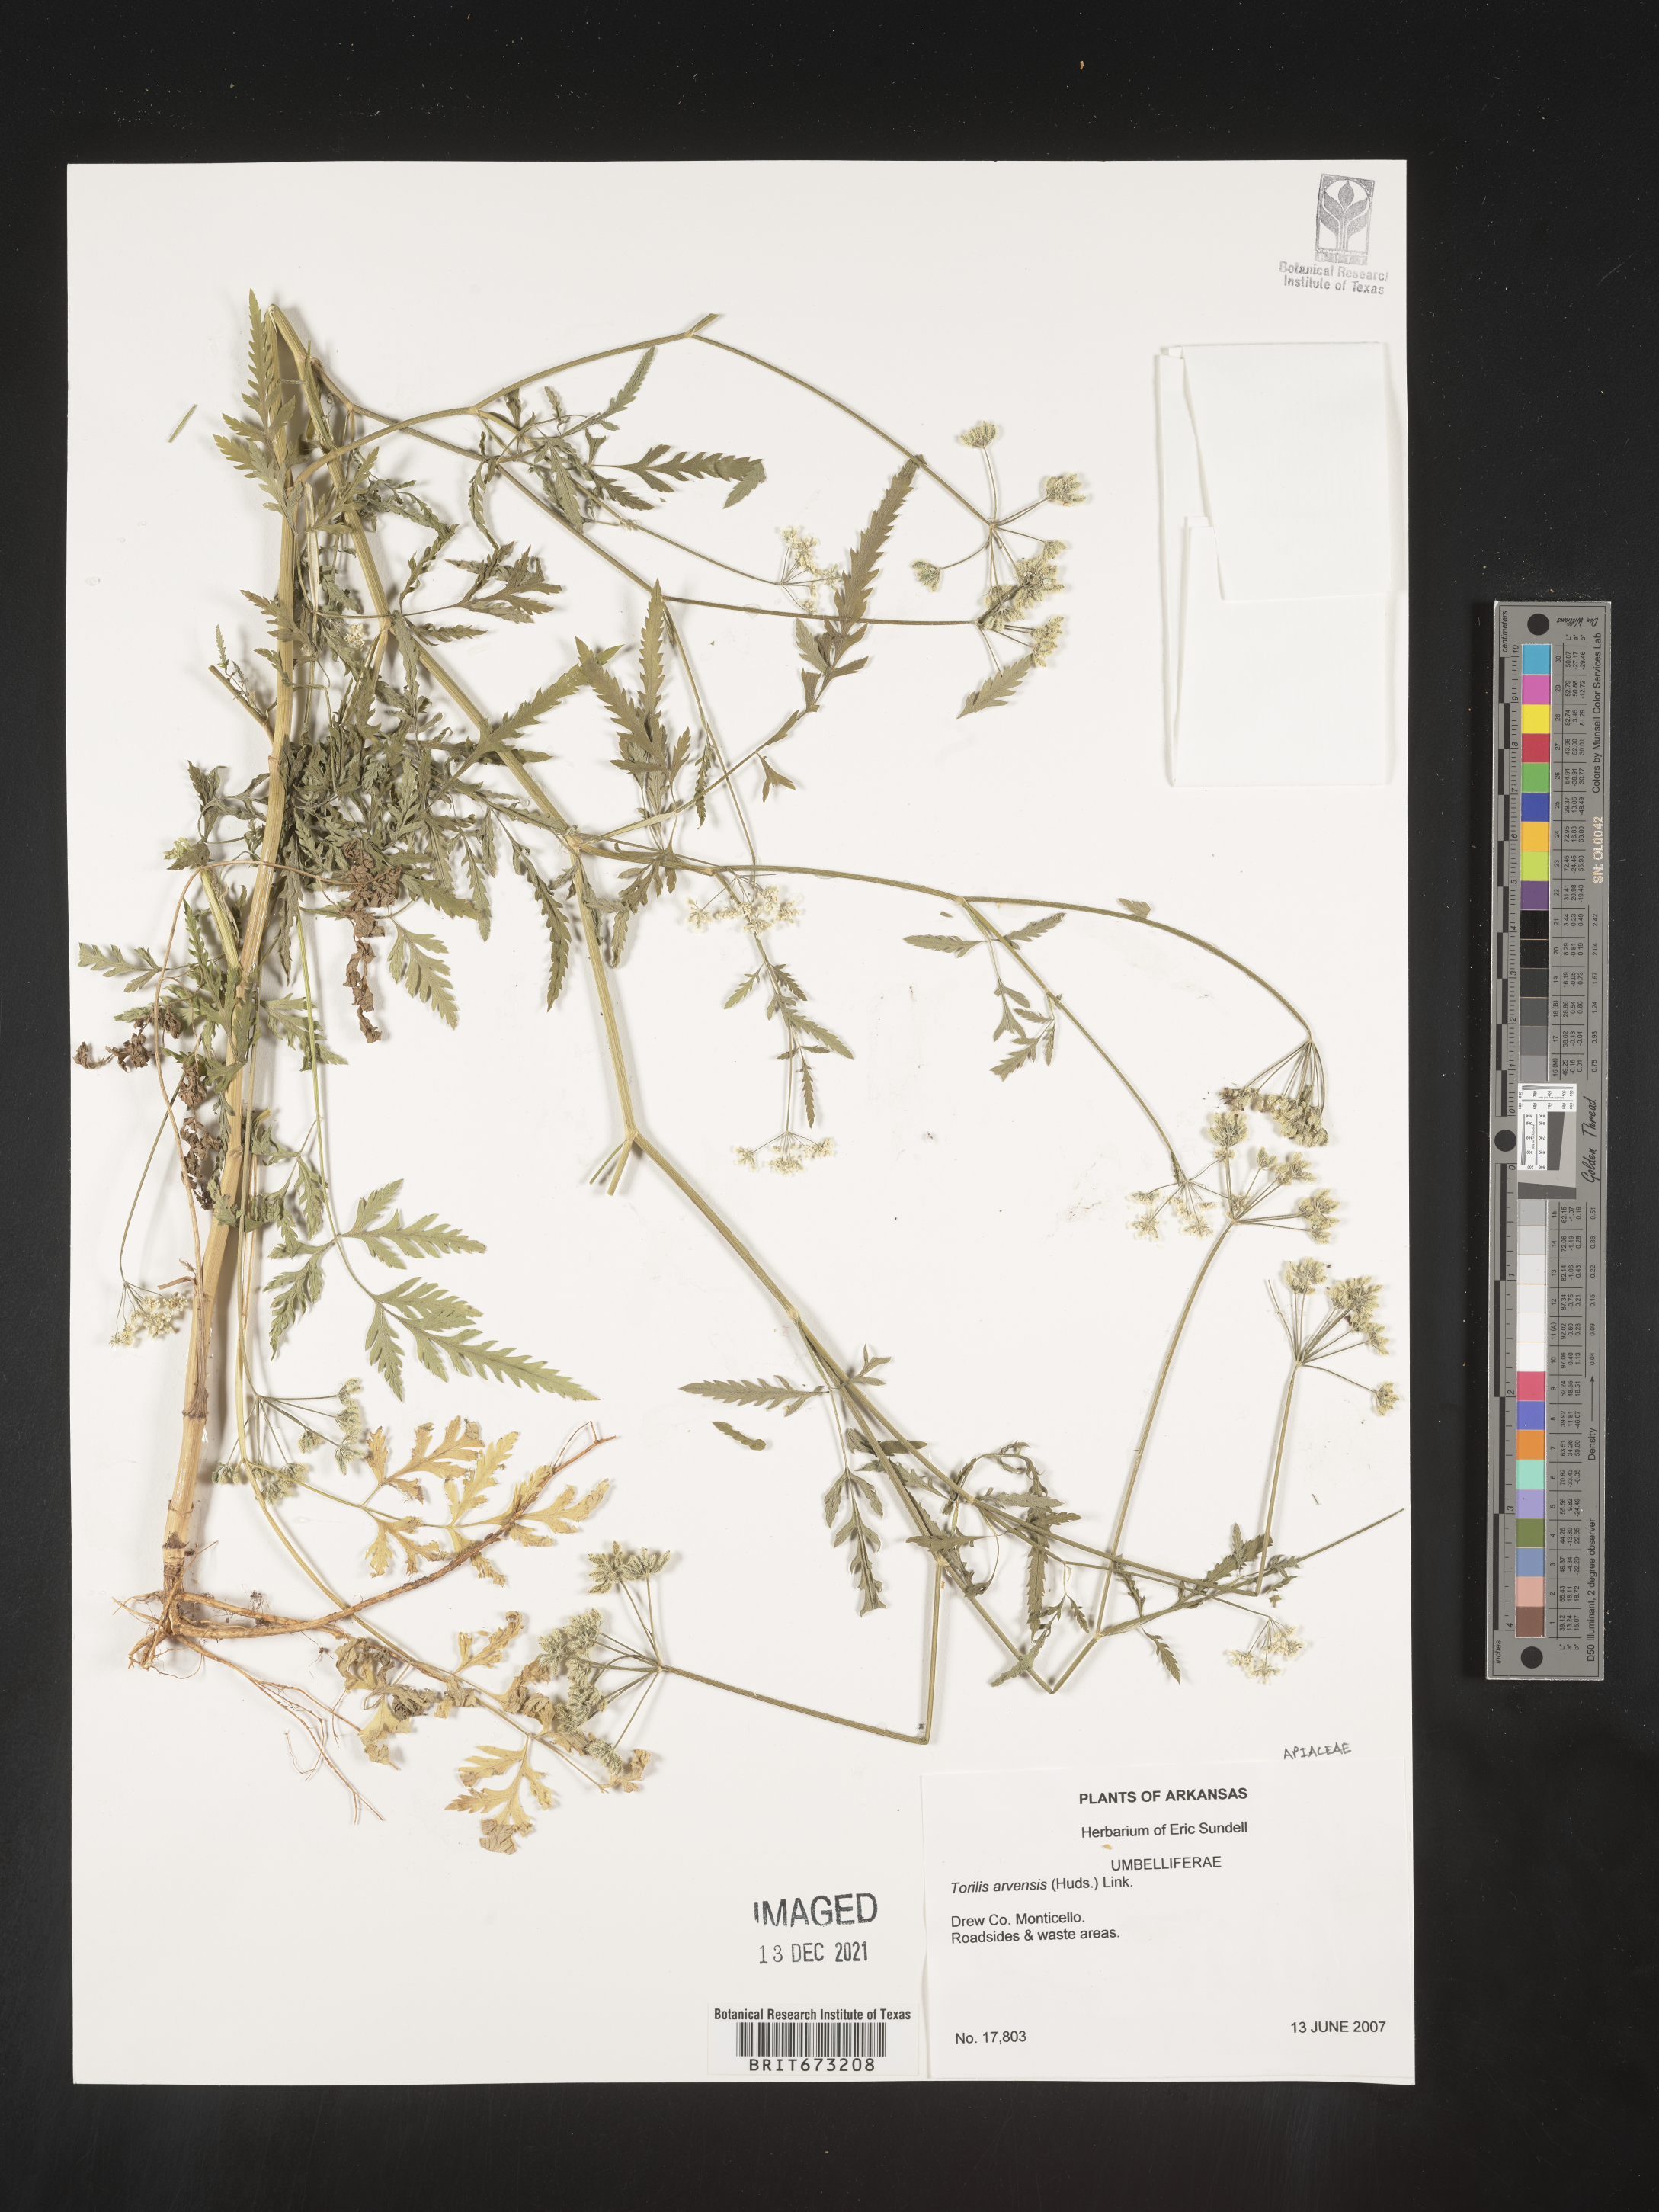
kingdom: Plantae
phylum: Tracheophyta
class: Magnoliopsida
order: Apiales
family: Apiaceae
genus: Torilis
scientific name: Torilis arvensis
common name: Spreading hedge-parsley
